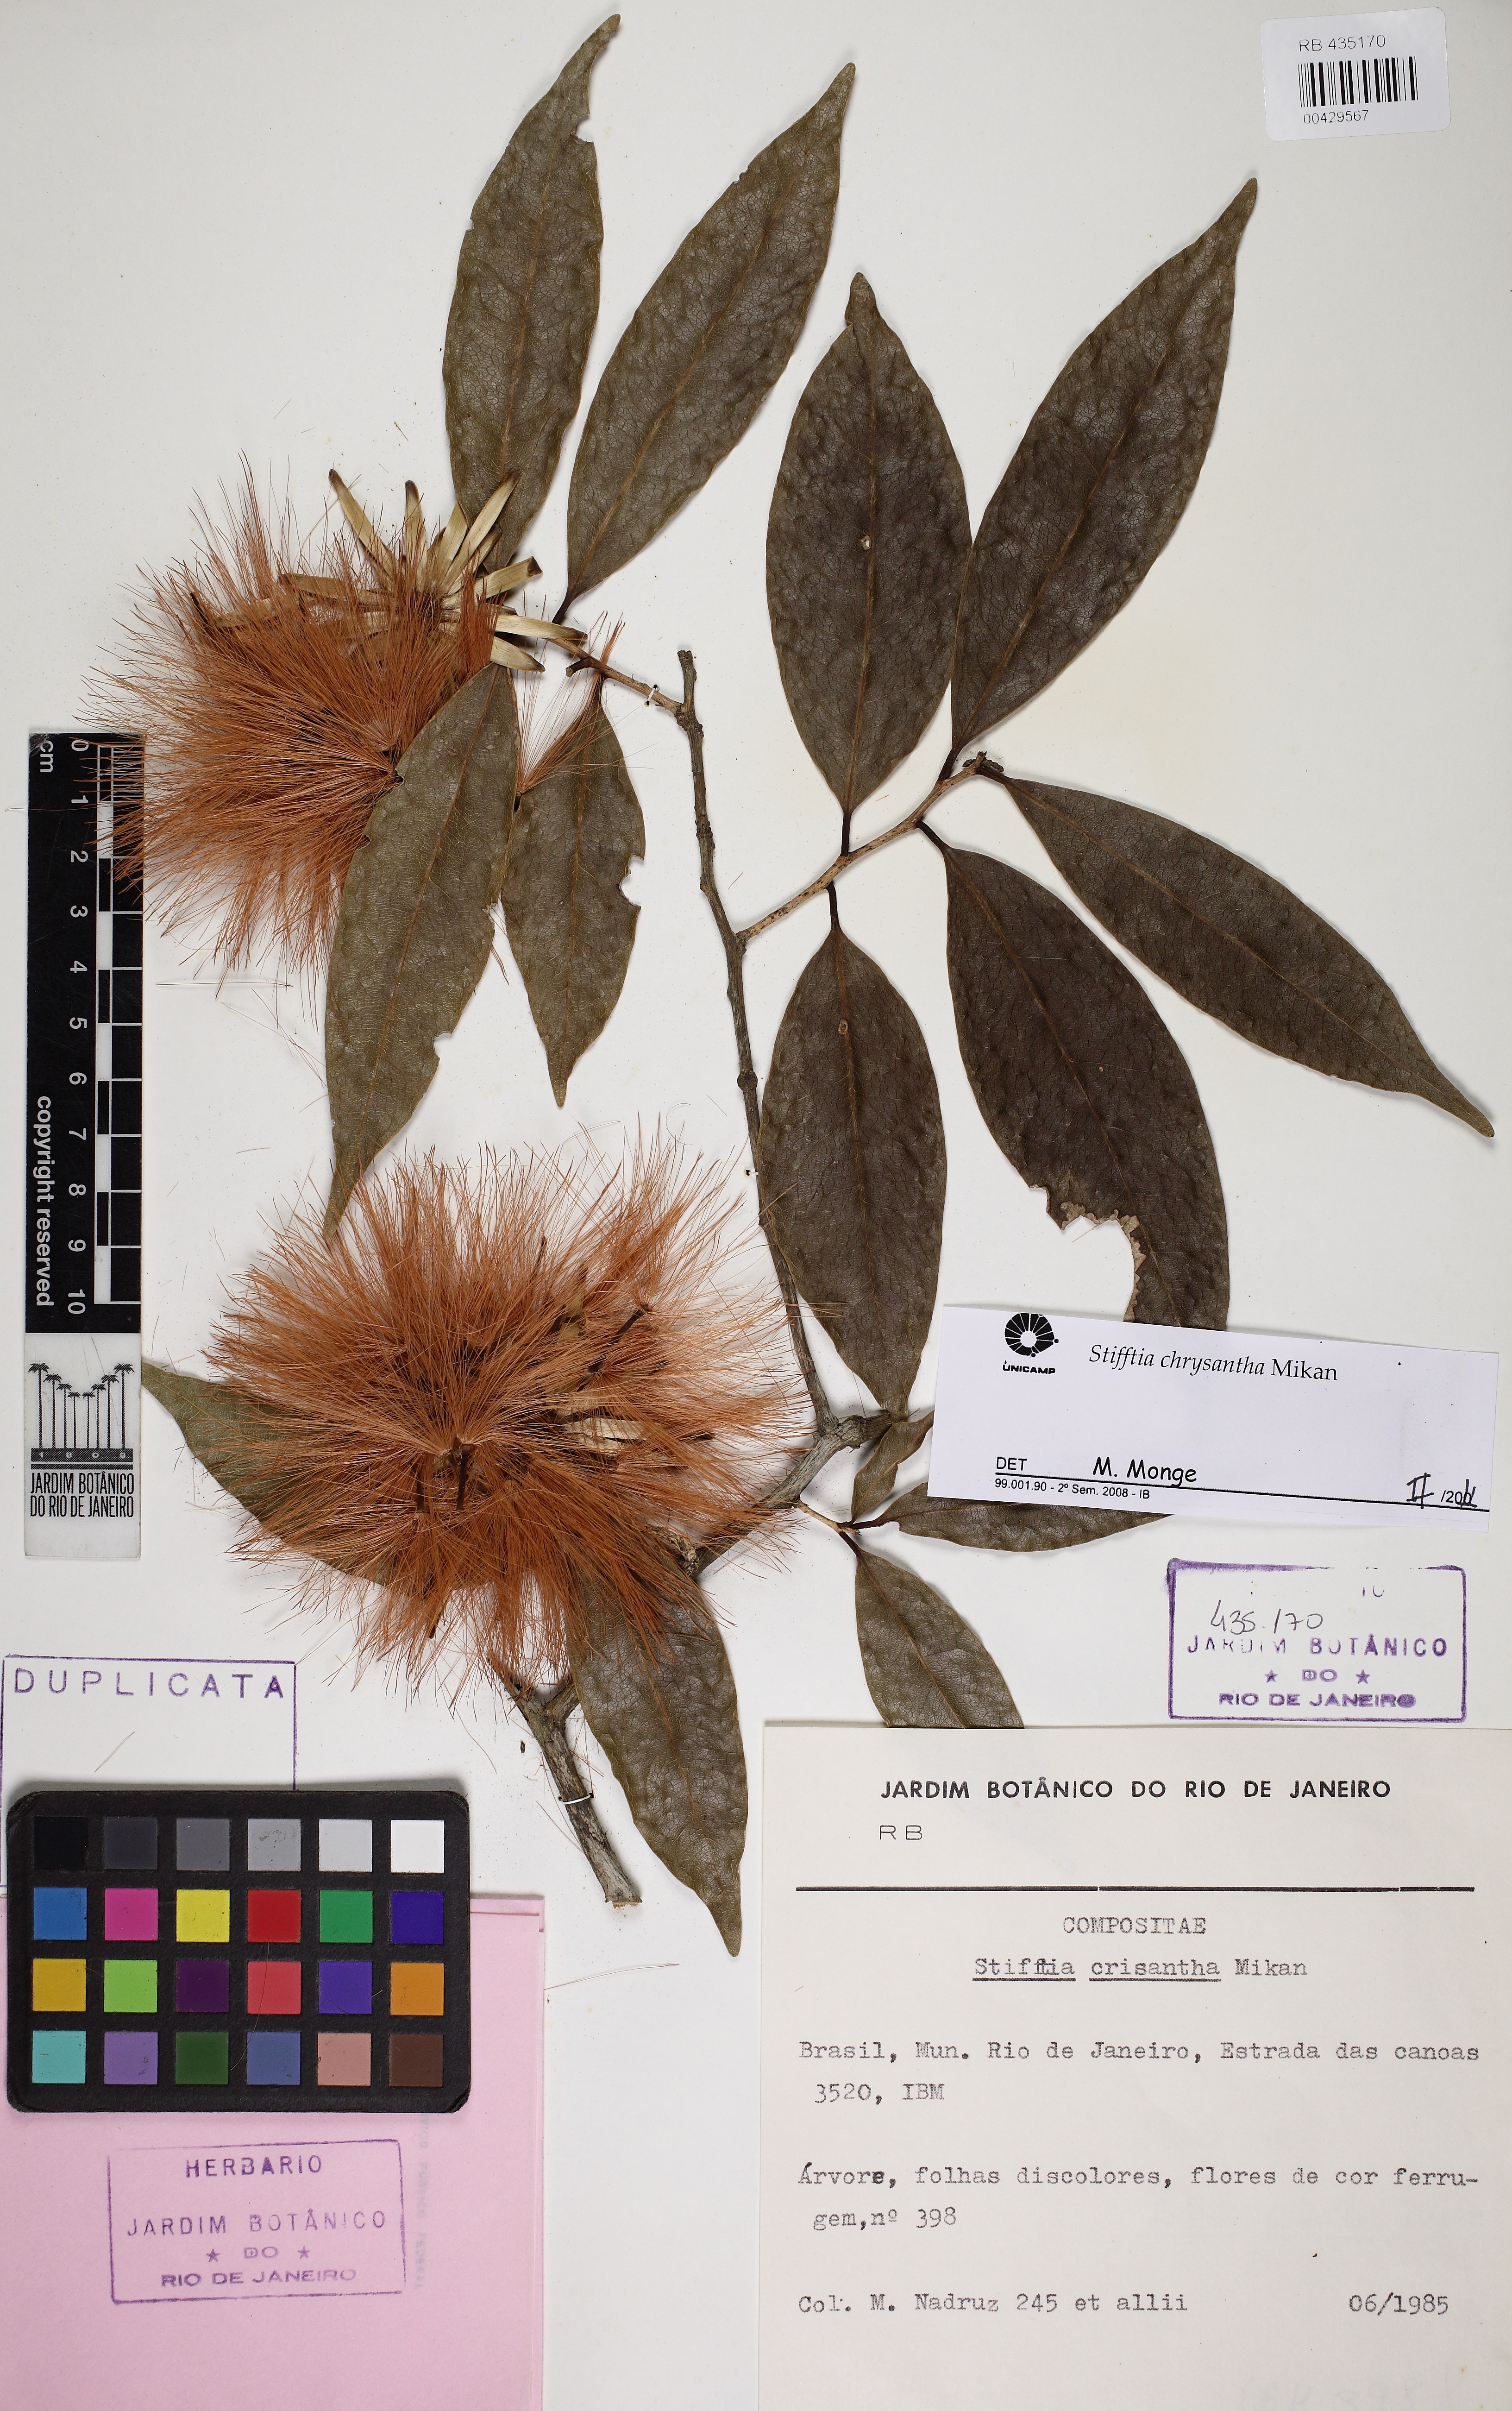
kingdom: Plantae
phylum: Tracheophyta
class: Magnoliopsida
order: Asterales
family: Asteraceae
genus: Stifftia
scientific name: Stifftia chrysantha
